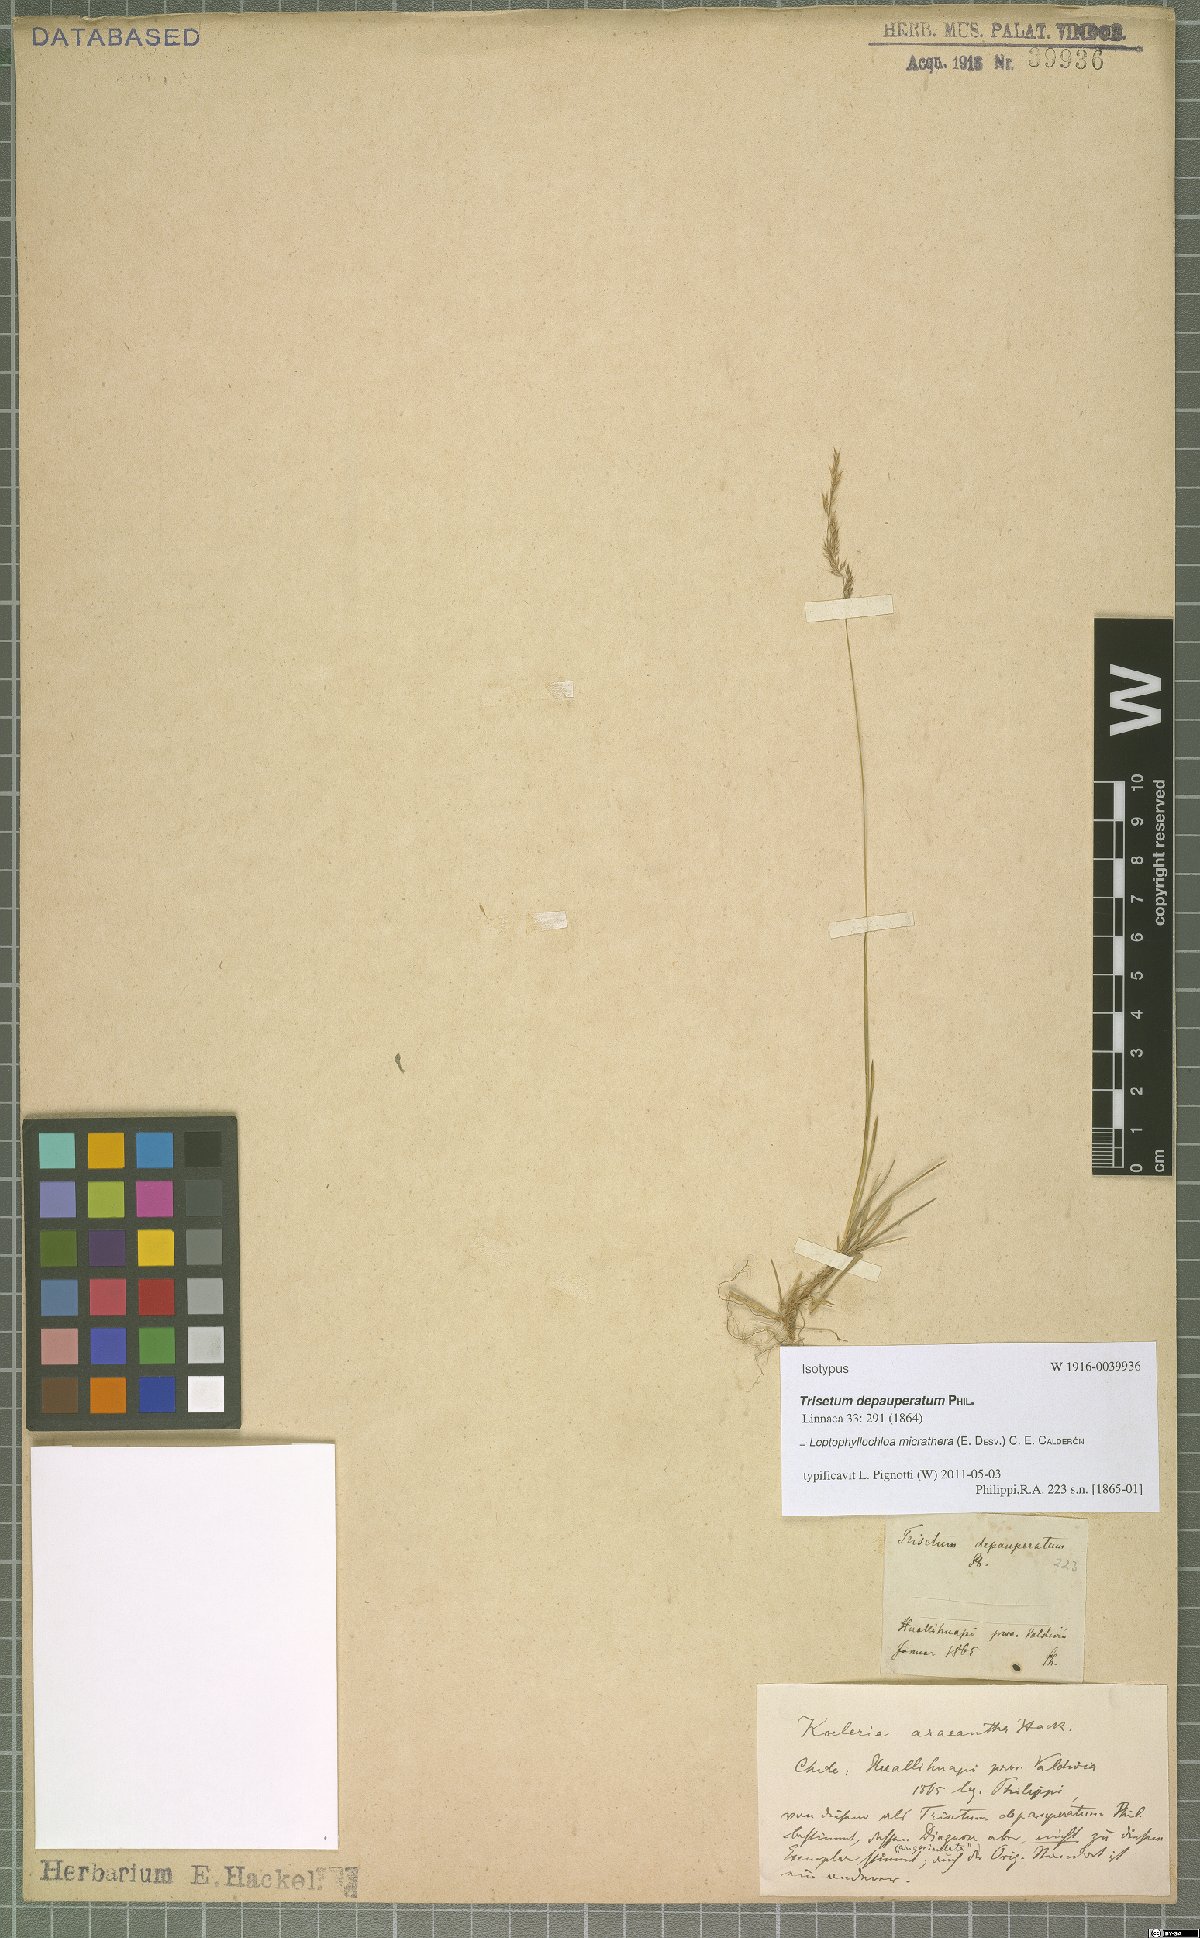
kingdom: Plantae
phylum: Tracheophyta
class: Liliopsida
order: Poales
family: Poaceae
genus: Cinnagrostis
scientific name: Cinnagrostis micrathera
